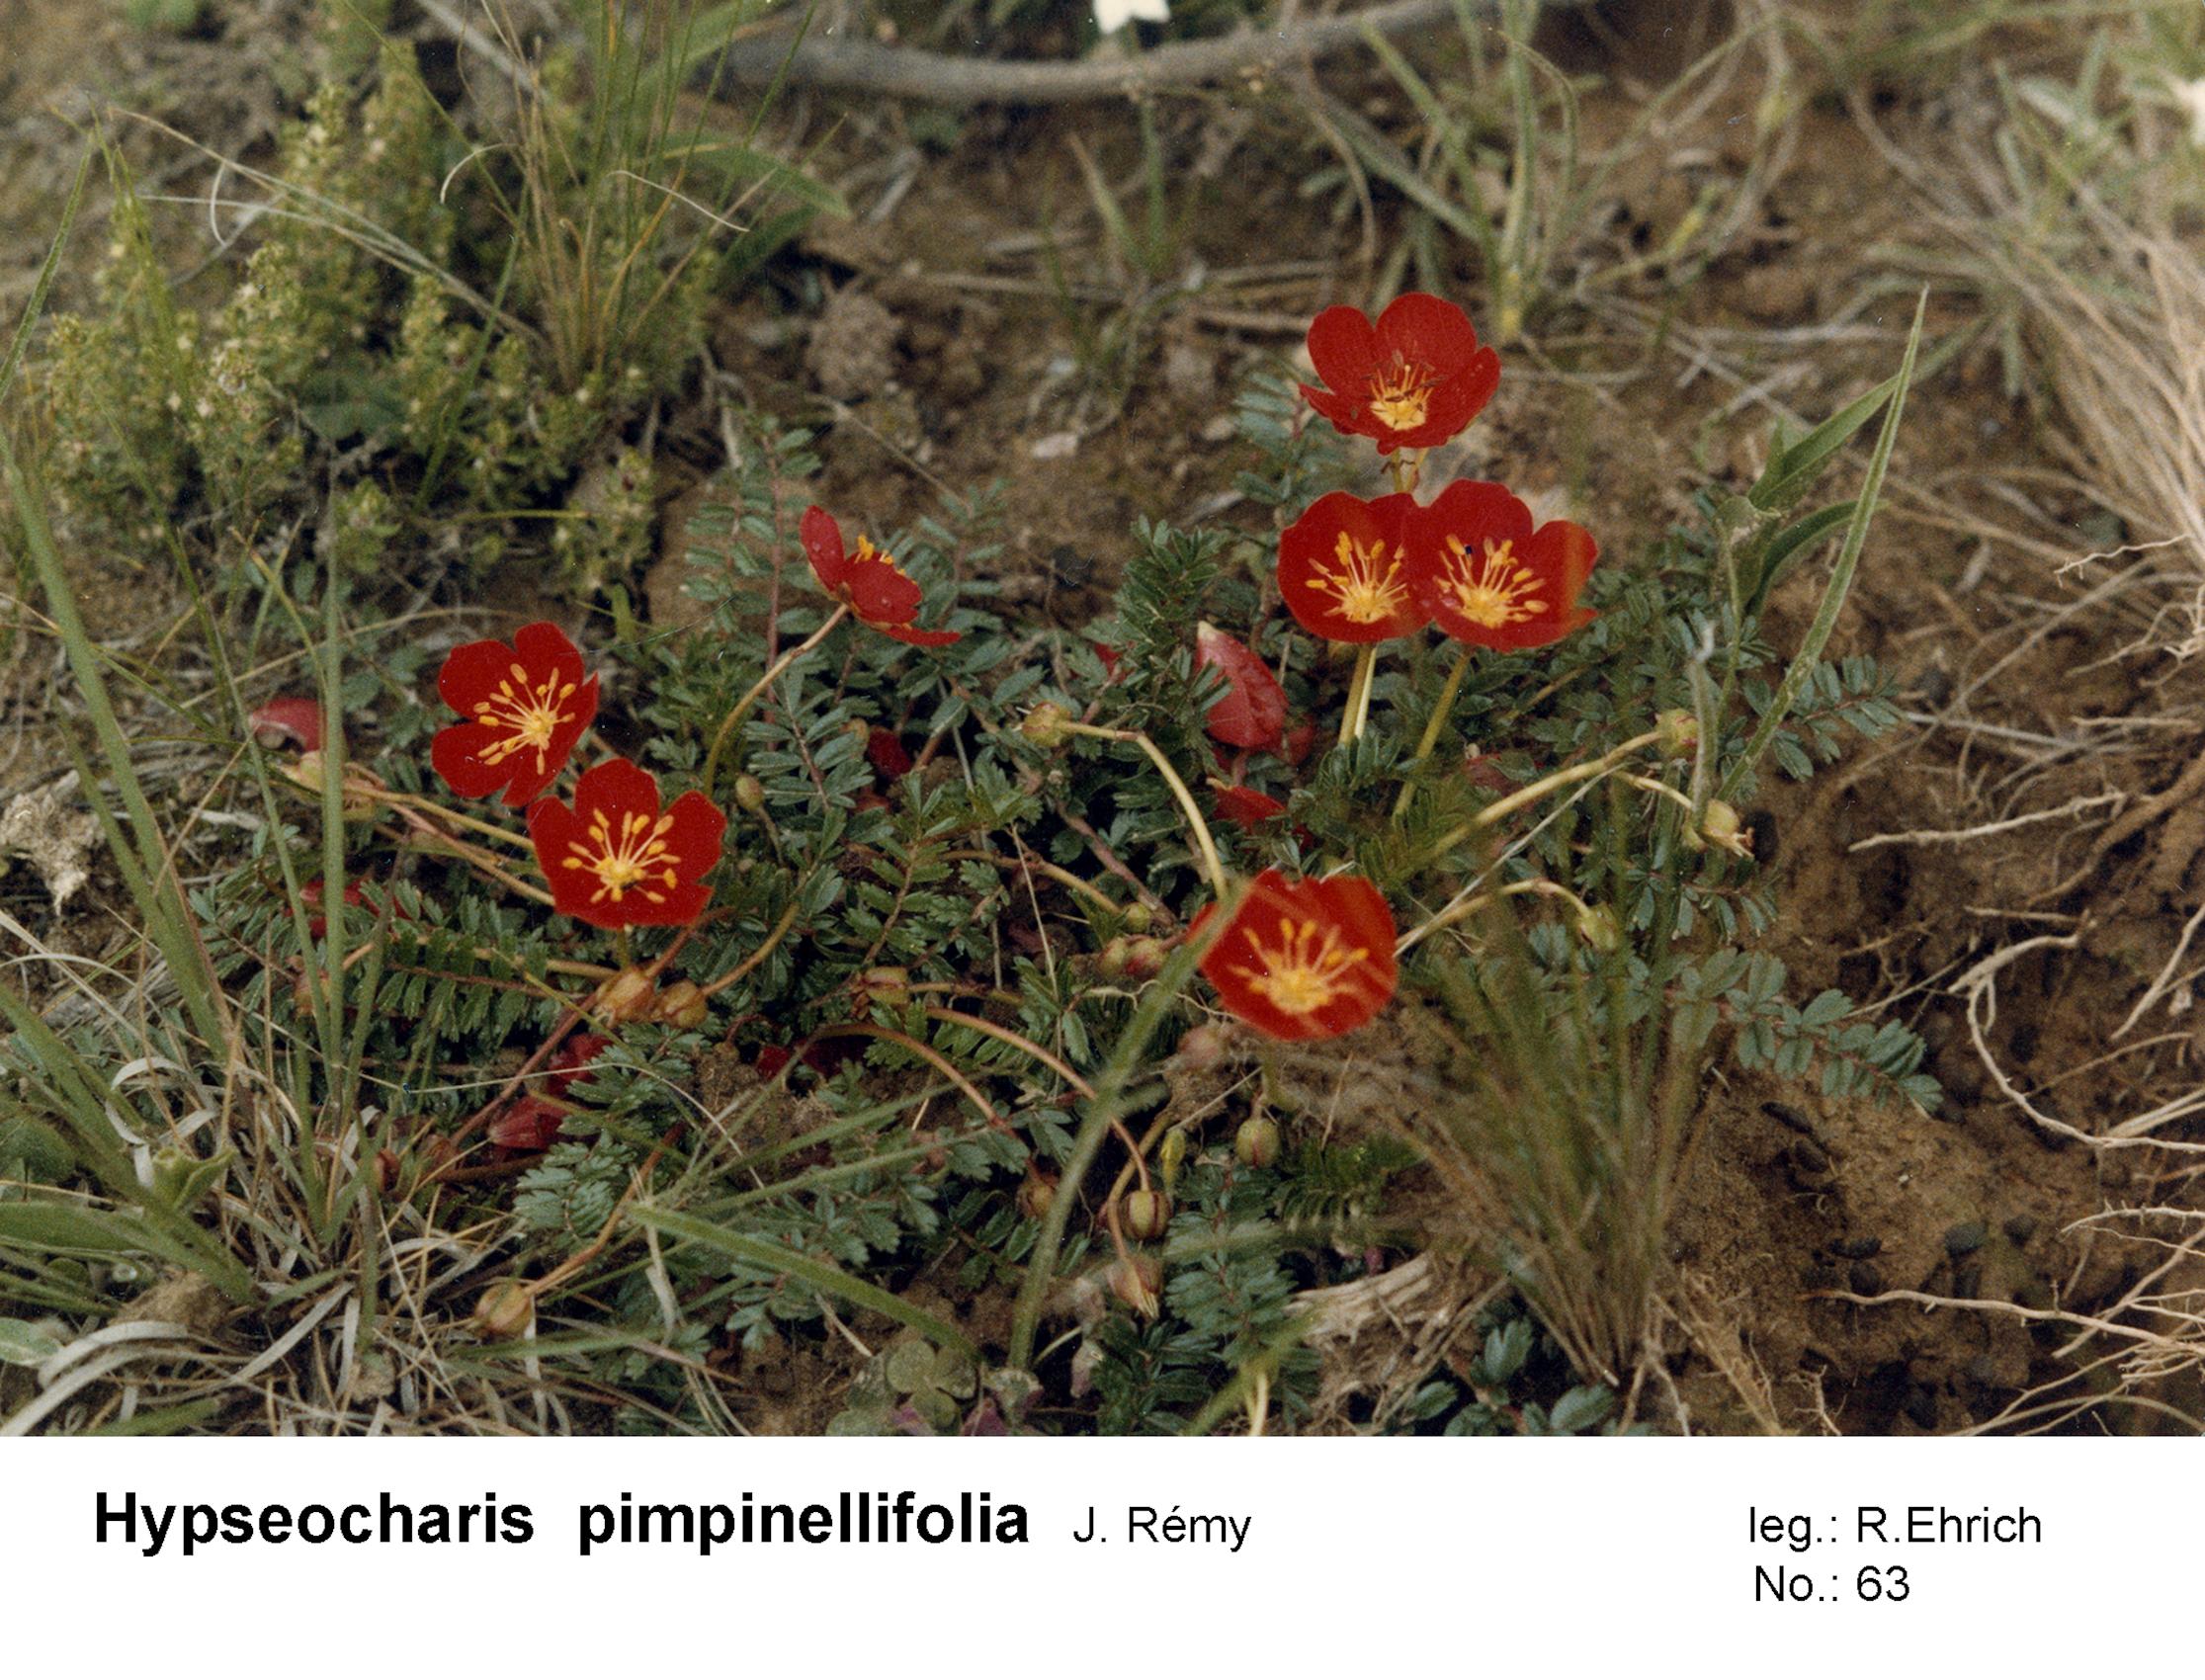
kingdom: Plantae
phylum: Tracheophyta
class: Magnoliopsida
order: Geraniales
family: Hypseocharitaceae
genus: Hypseocharis
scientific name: Hypseocharis pimpinellifolia
